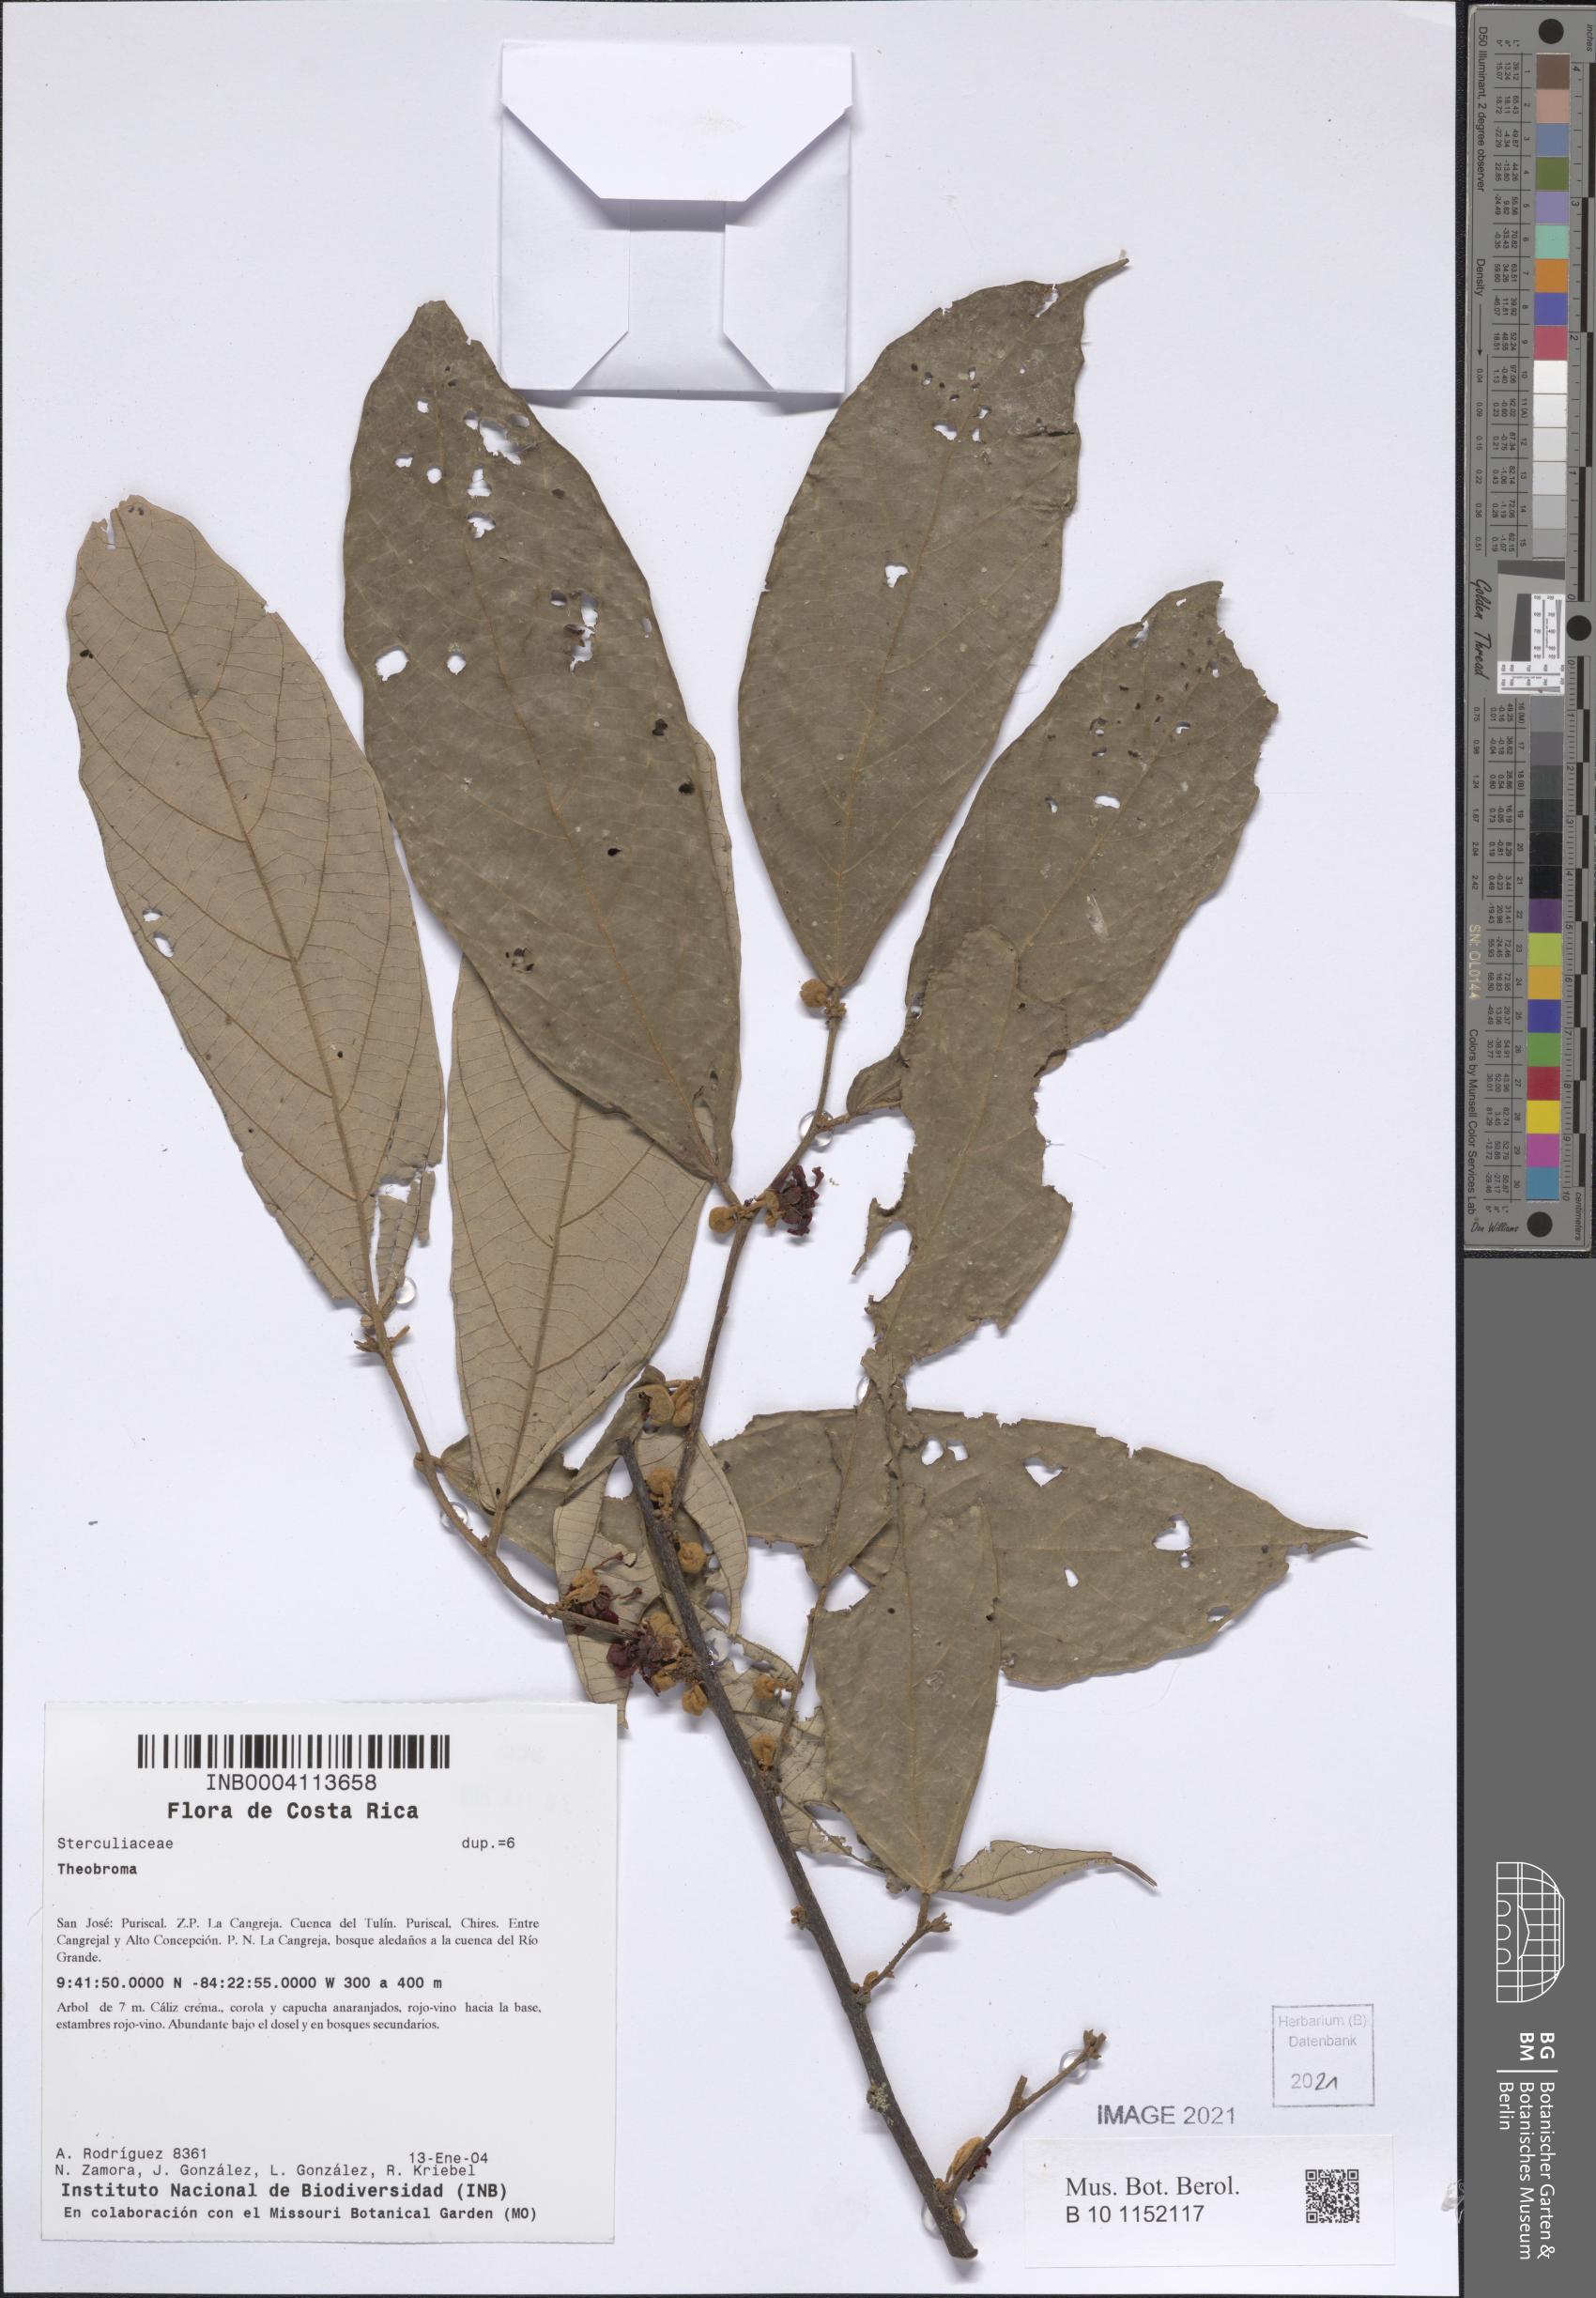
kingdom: Plantae
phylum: Tracheophyta
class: Magnoliopsida
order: Malvales
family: Malvaceae
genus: Theobroma
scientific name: Theobroma
